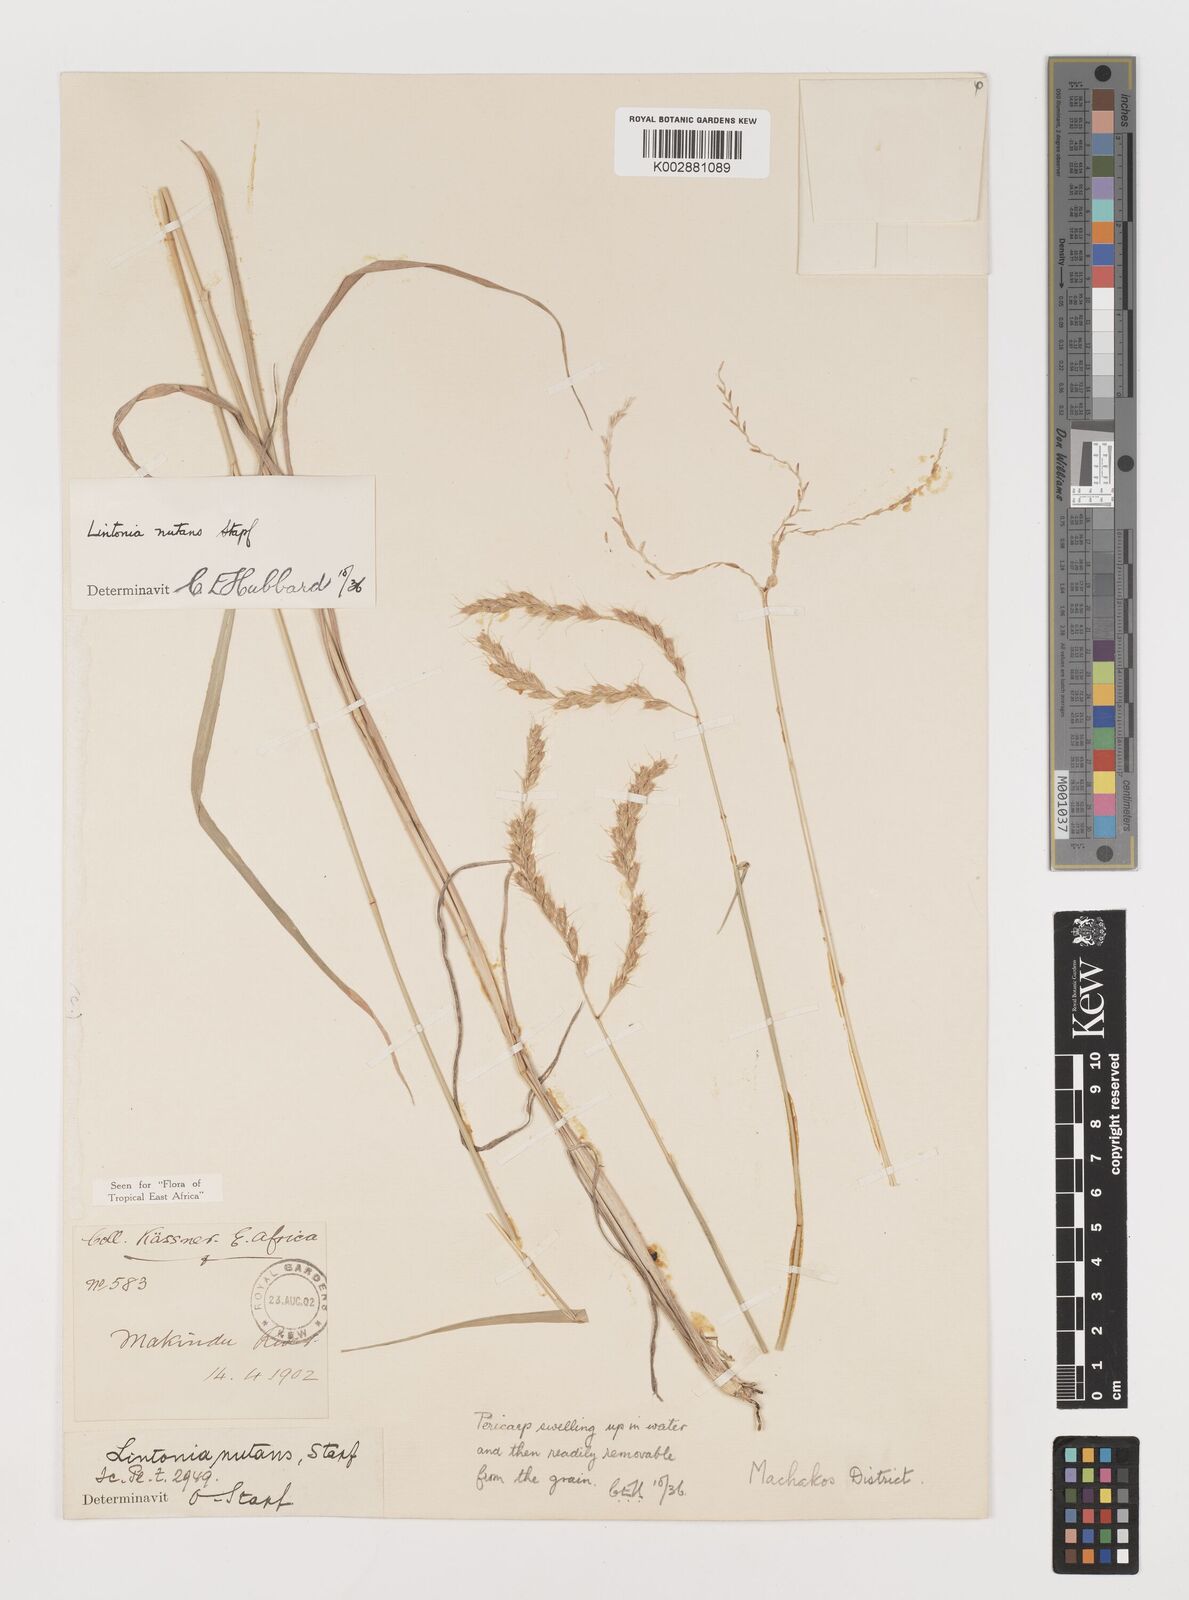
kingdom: Plantae
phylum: Tracheophyta
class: Liliopsida
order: Poales
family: Poaceae
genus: Chloris
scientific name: Chloris nutans
